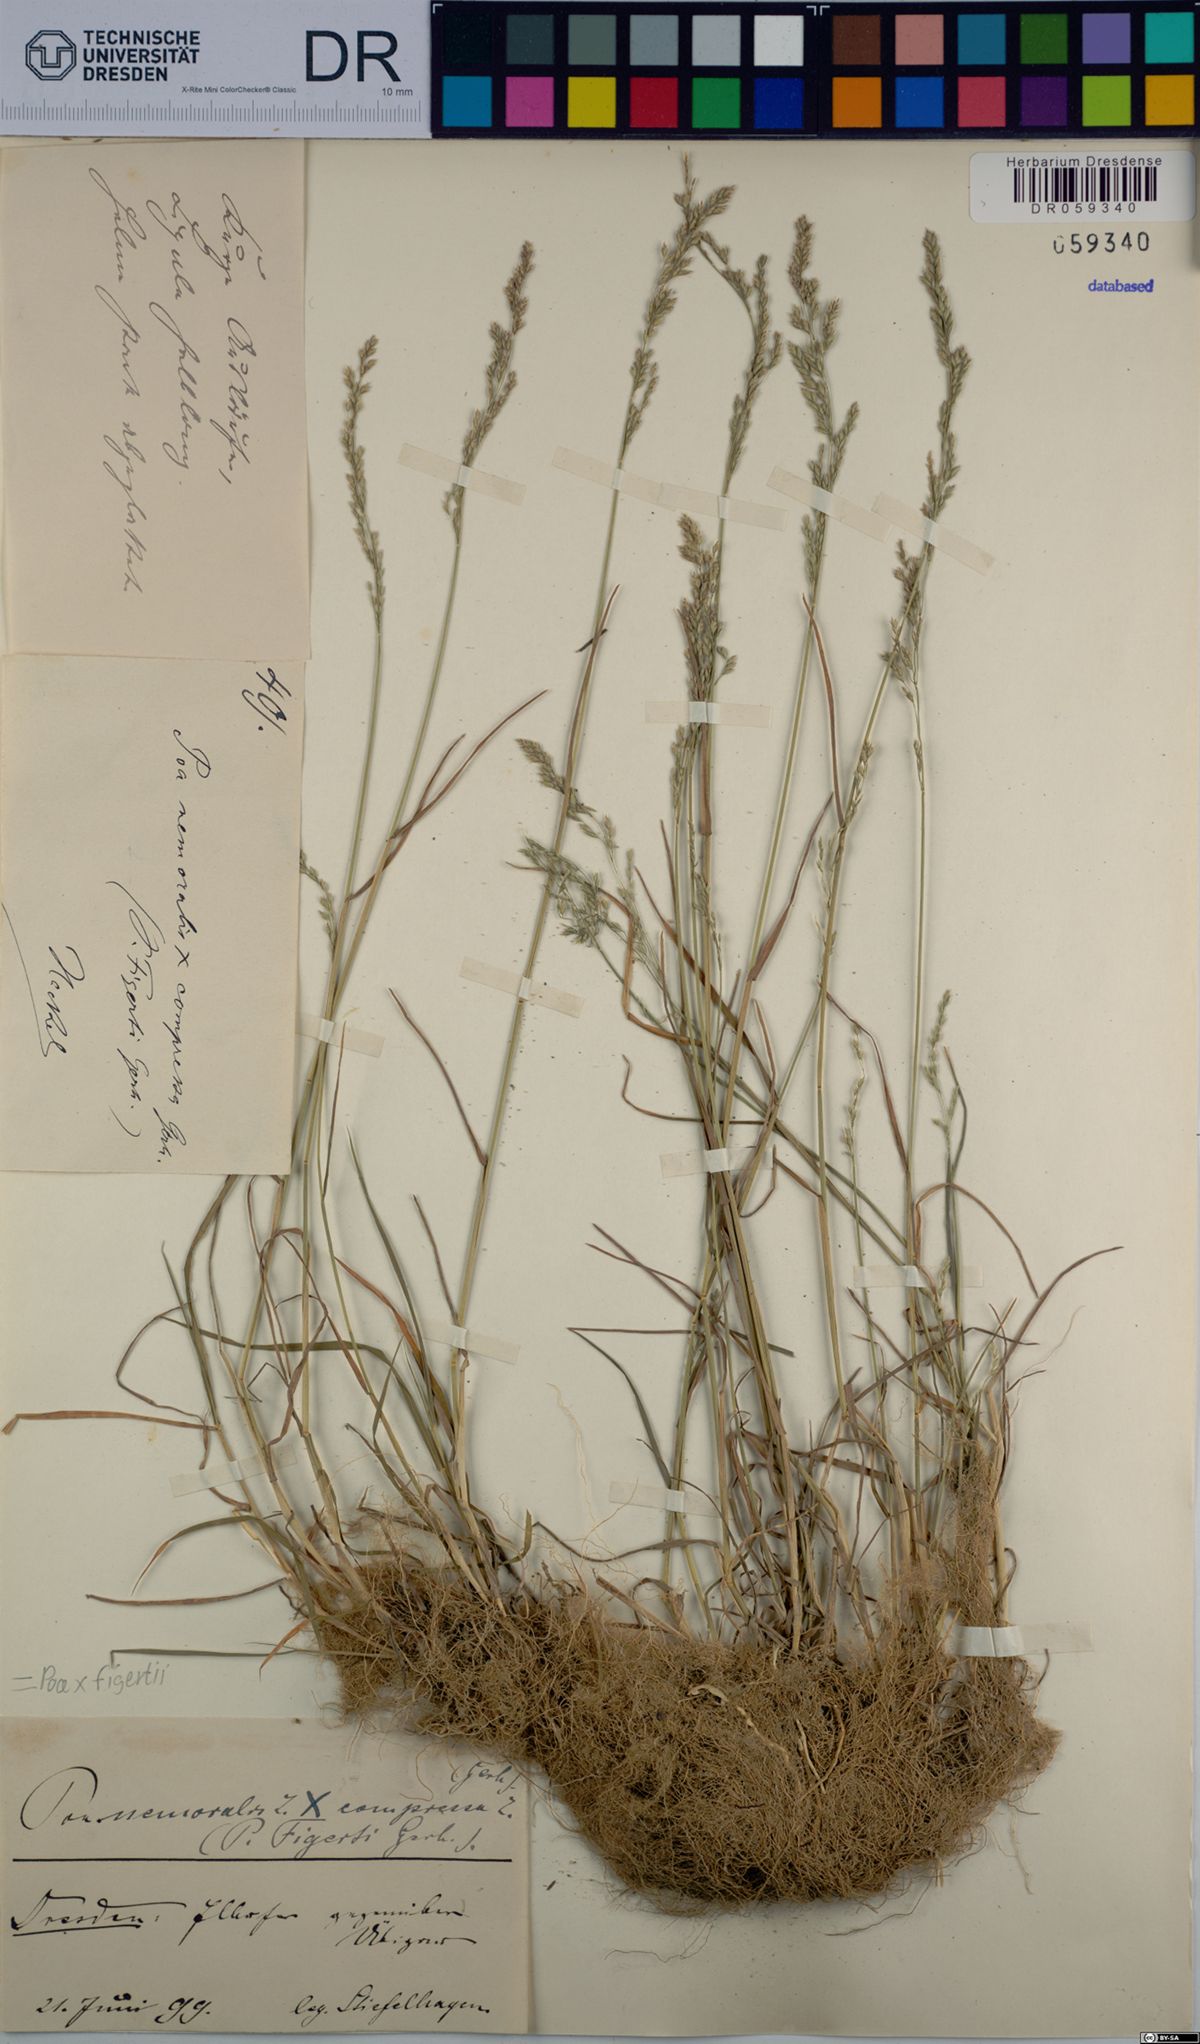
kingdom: Plantae
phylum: Tracheophyta
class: Liliopsida
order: Poales
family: Poaceae
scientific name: Poaceae
